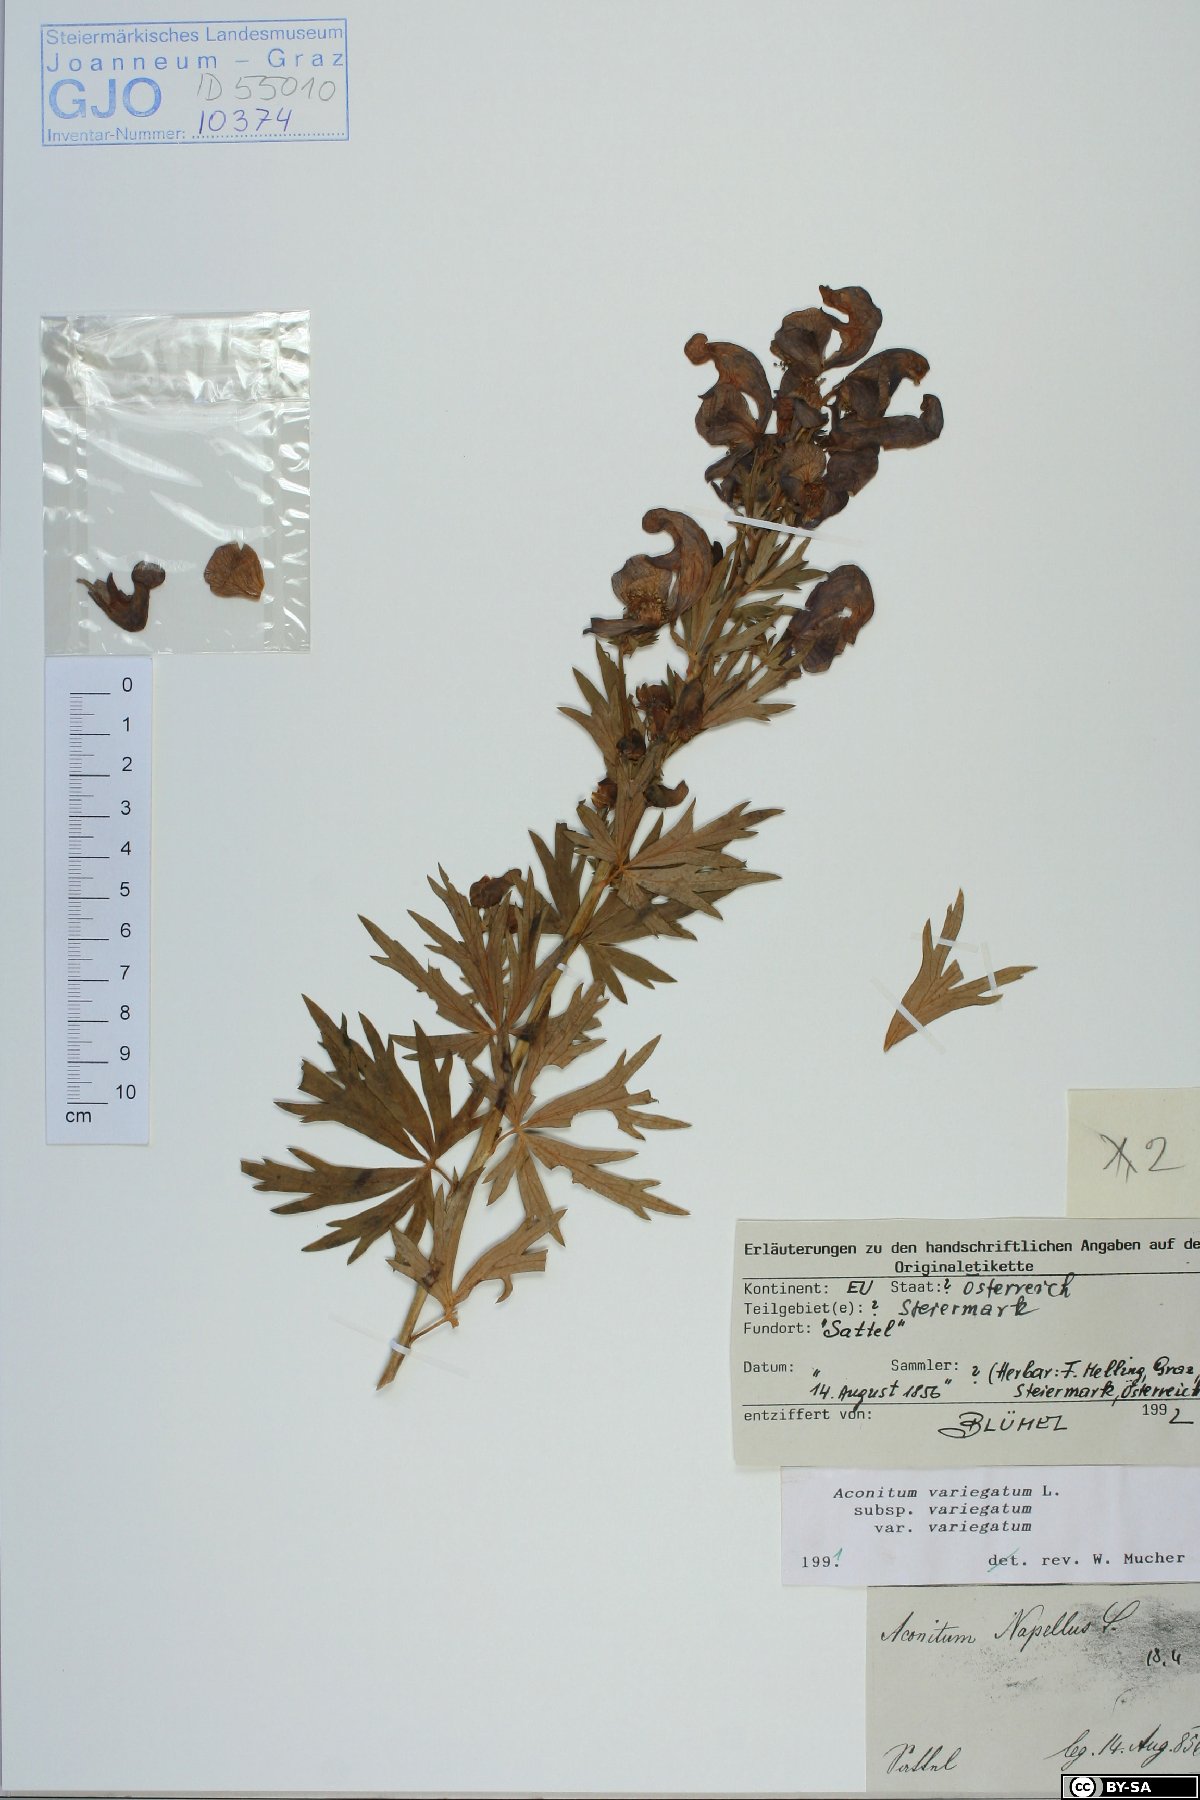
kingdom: Plantae
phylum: Tracheophyta
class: Magnoliopsida
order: Ranunculales
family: Ranunculaceae
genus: Aconitum
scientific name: Aconitum variegatum
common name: Manchurian monkshood
